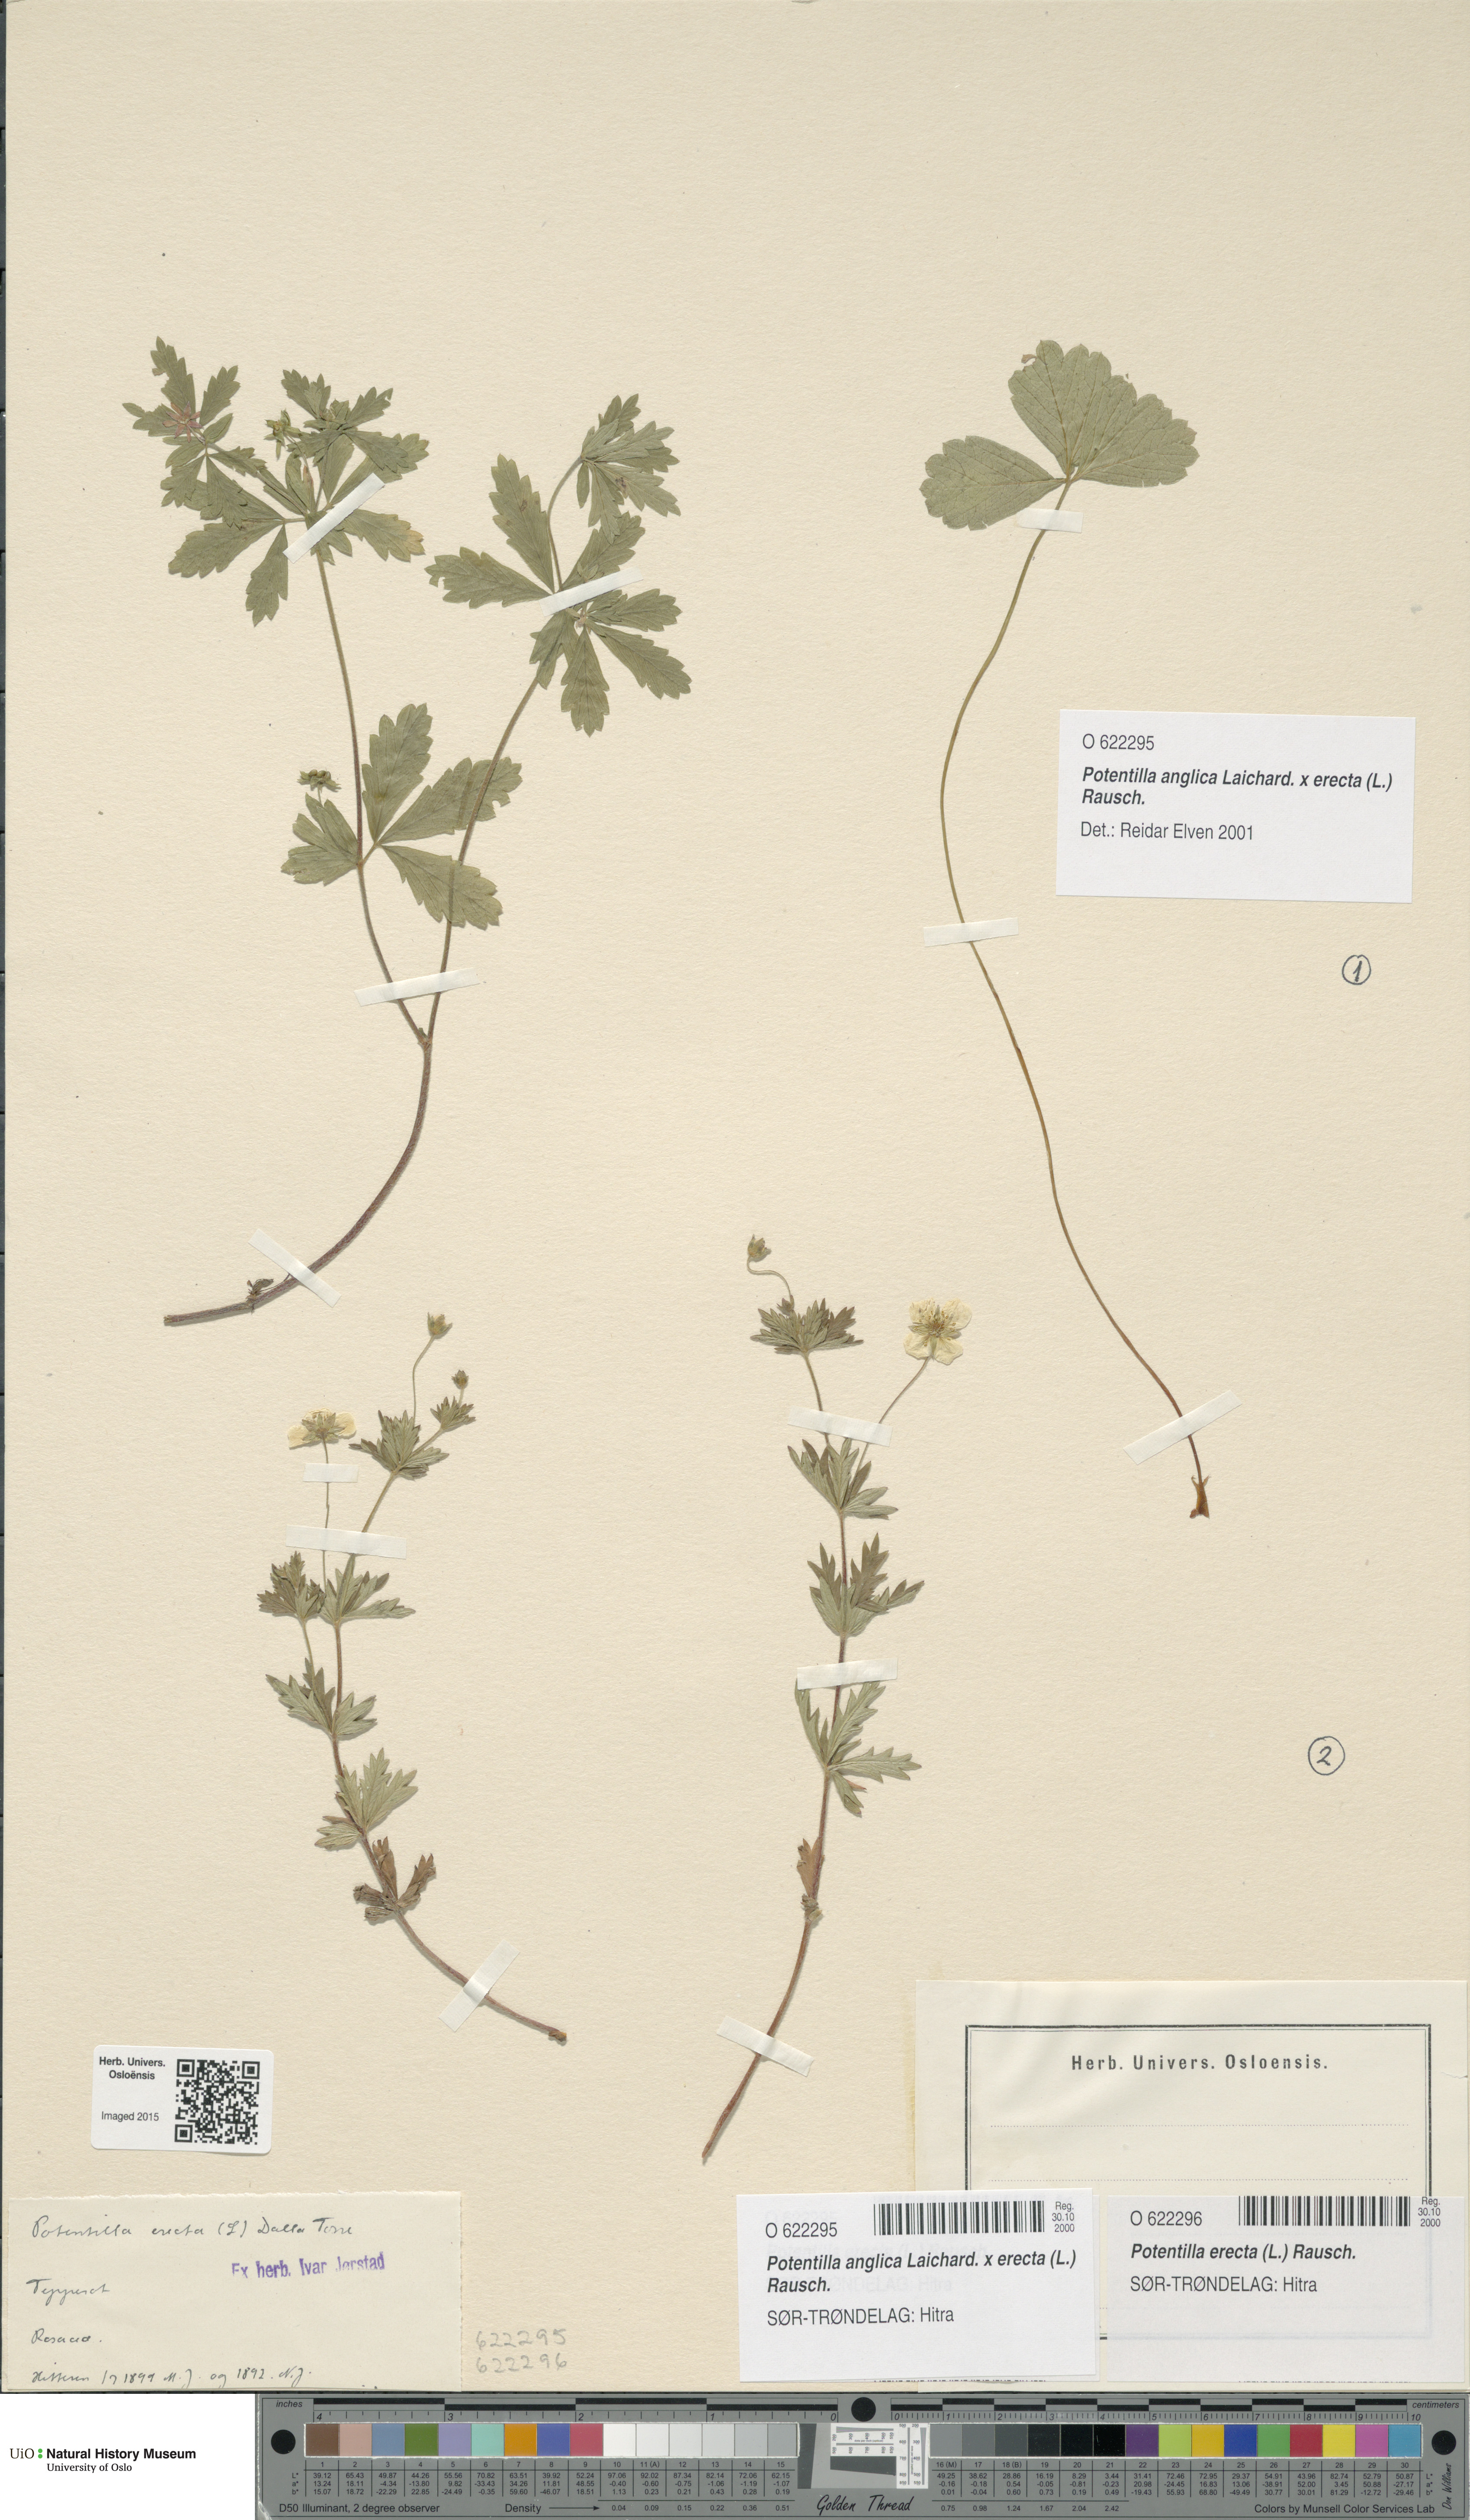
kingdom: Plantae
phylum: Tracheophyta
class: Magnoliopsida
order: Rosales
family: Rosaceae
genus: Potentilla
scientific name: Potentilla erecta
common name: Tormentil
